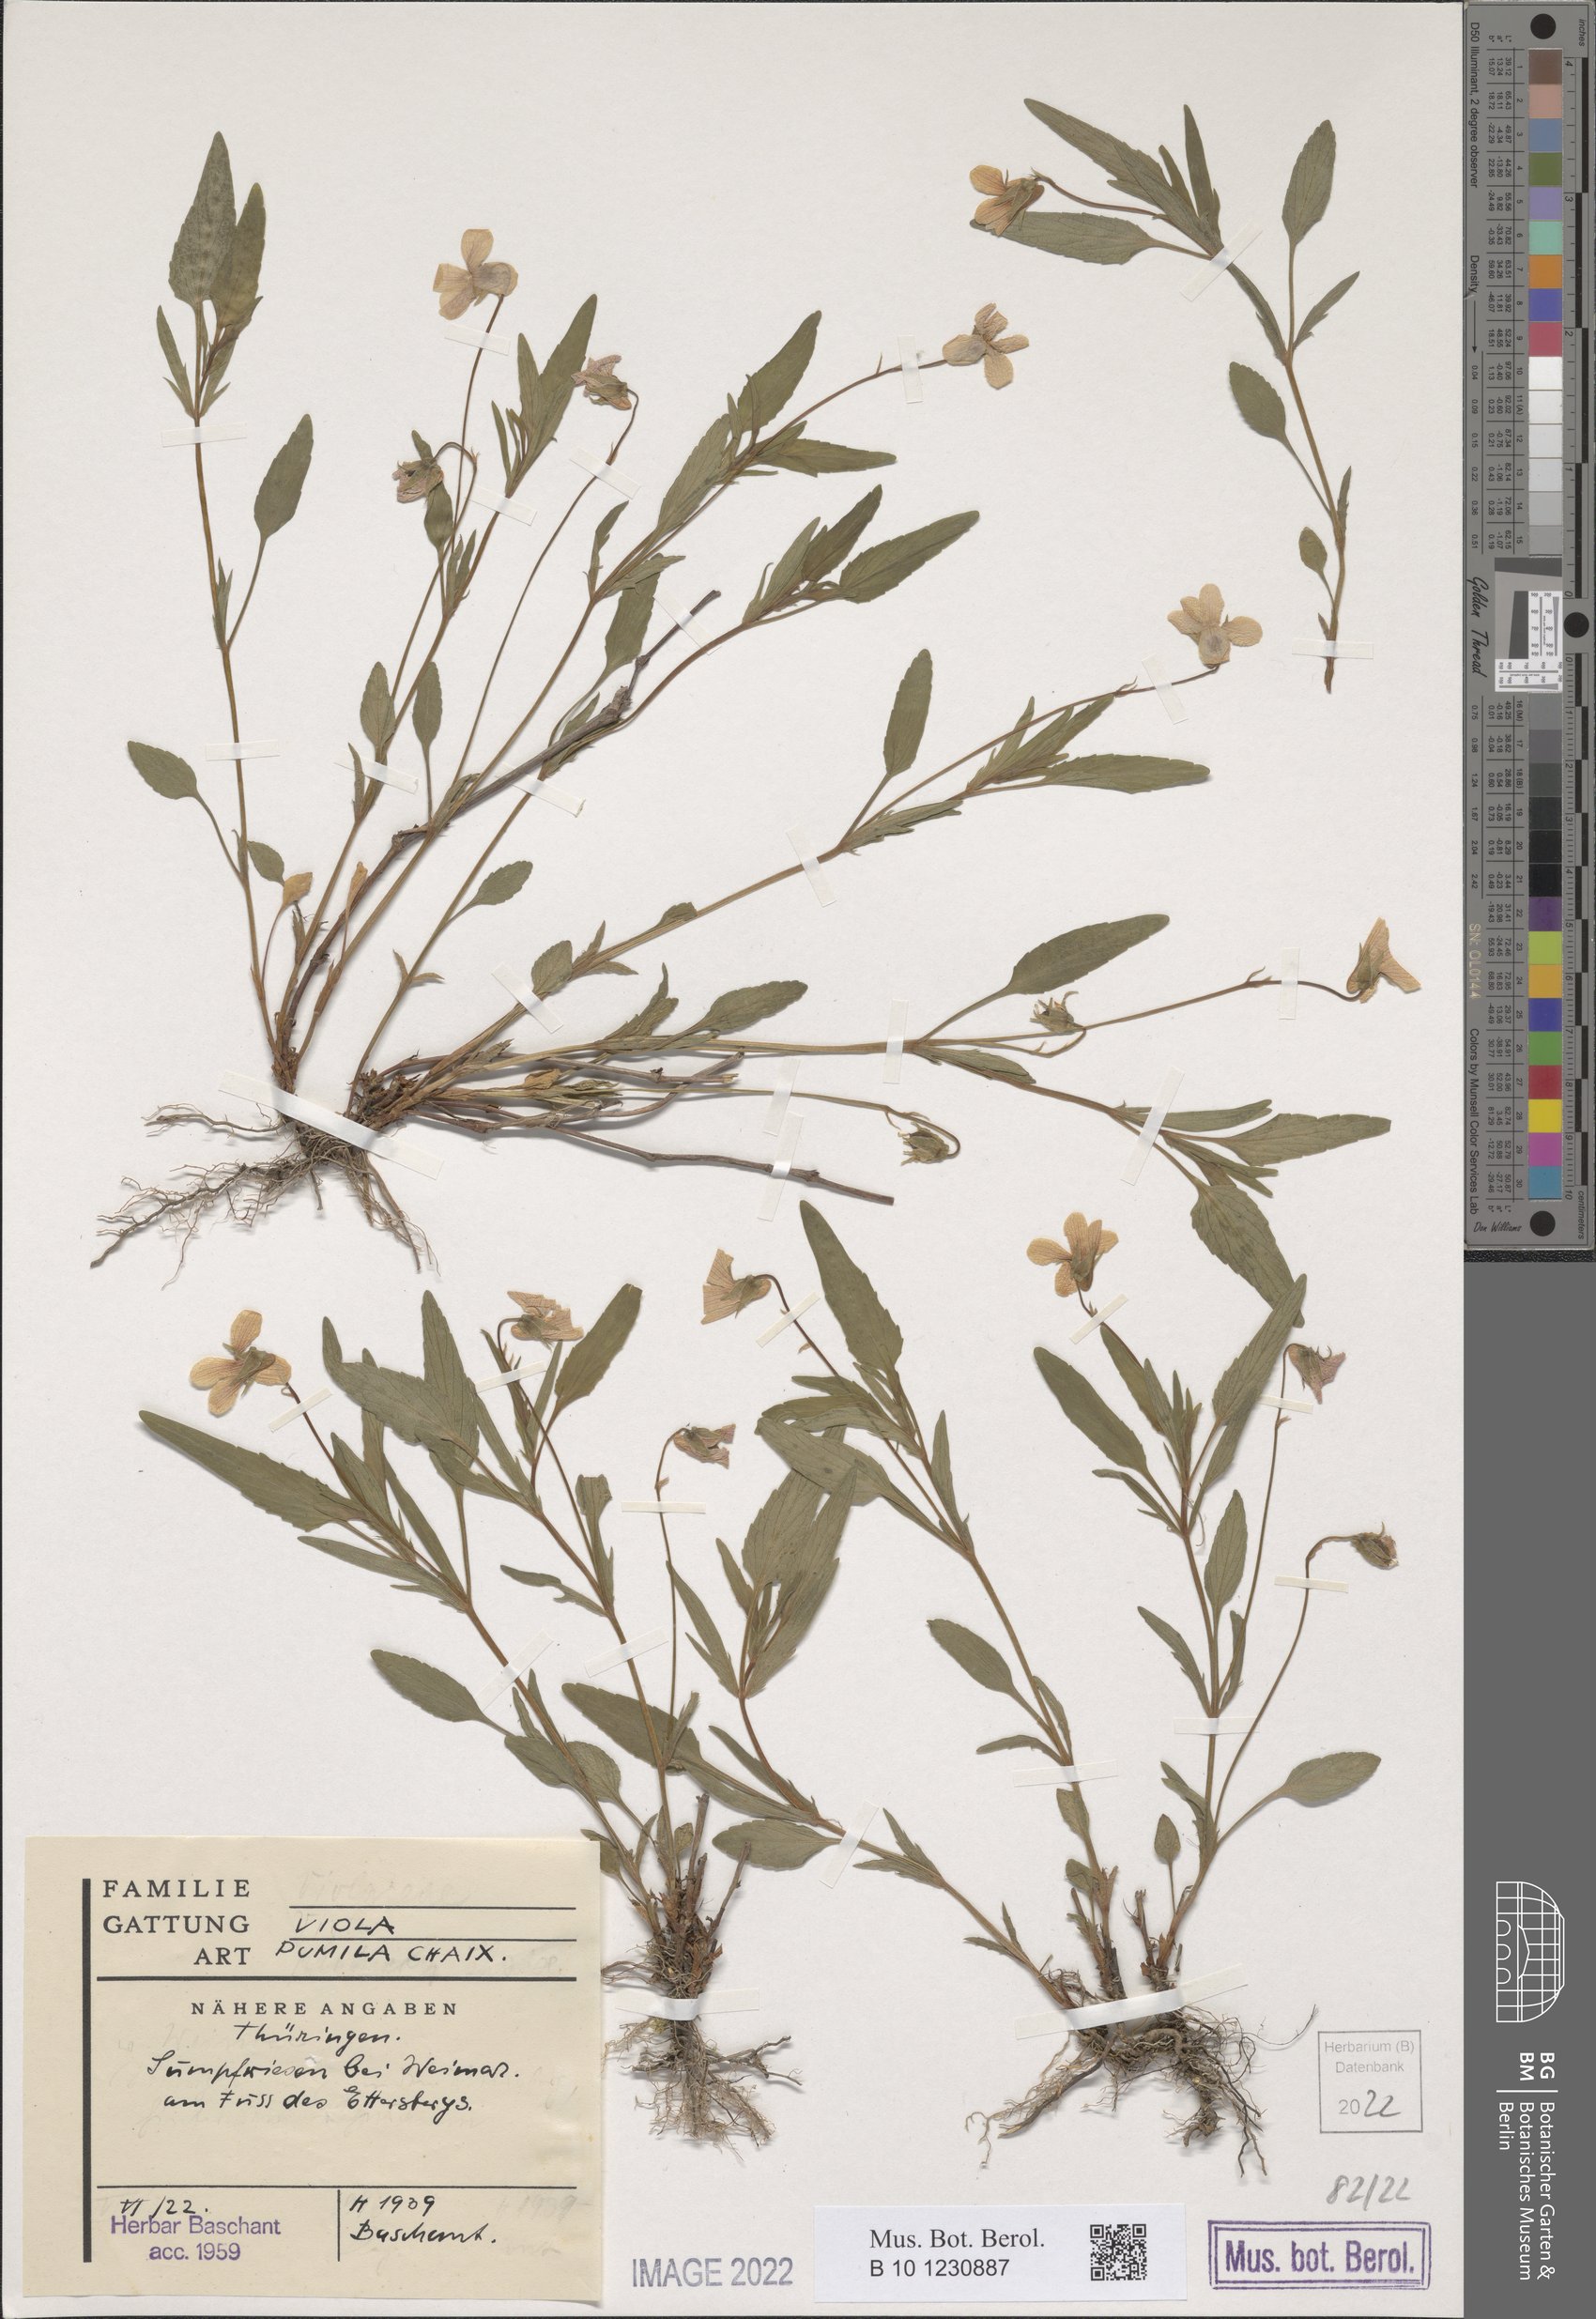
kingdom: Plantae
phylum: Tracheophyta
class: Magnoliopsida
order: Malpighiales
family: Violaceae
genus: Viola
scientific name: Viola pumila
